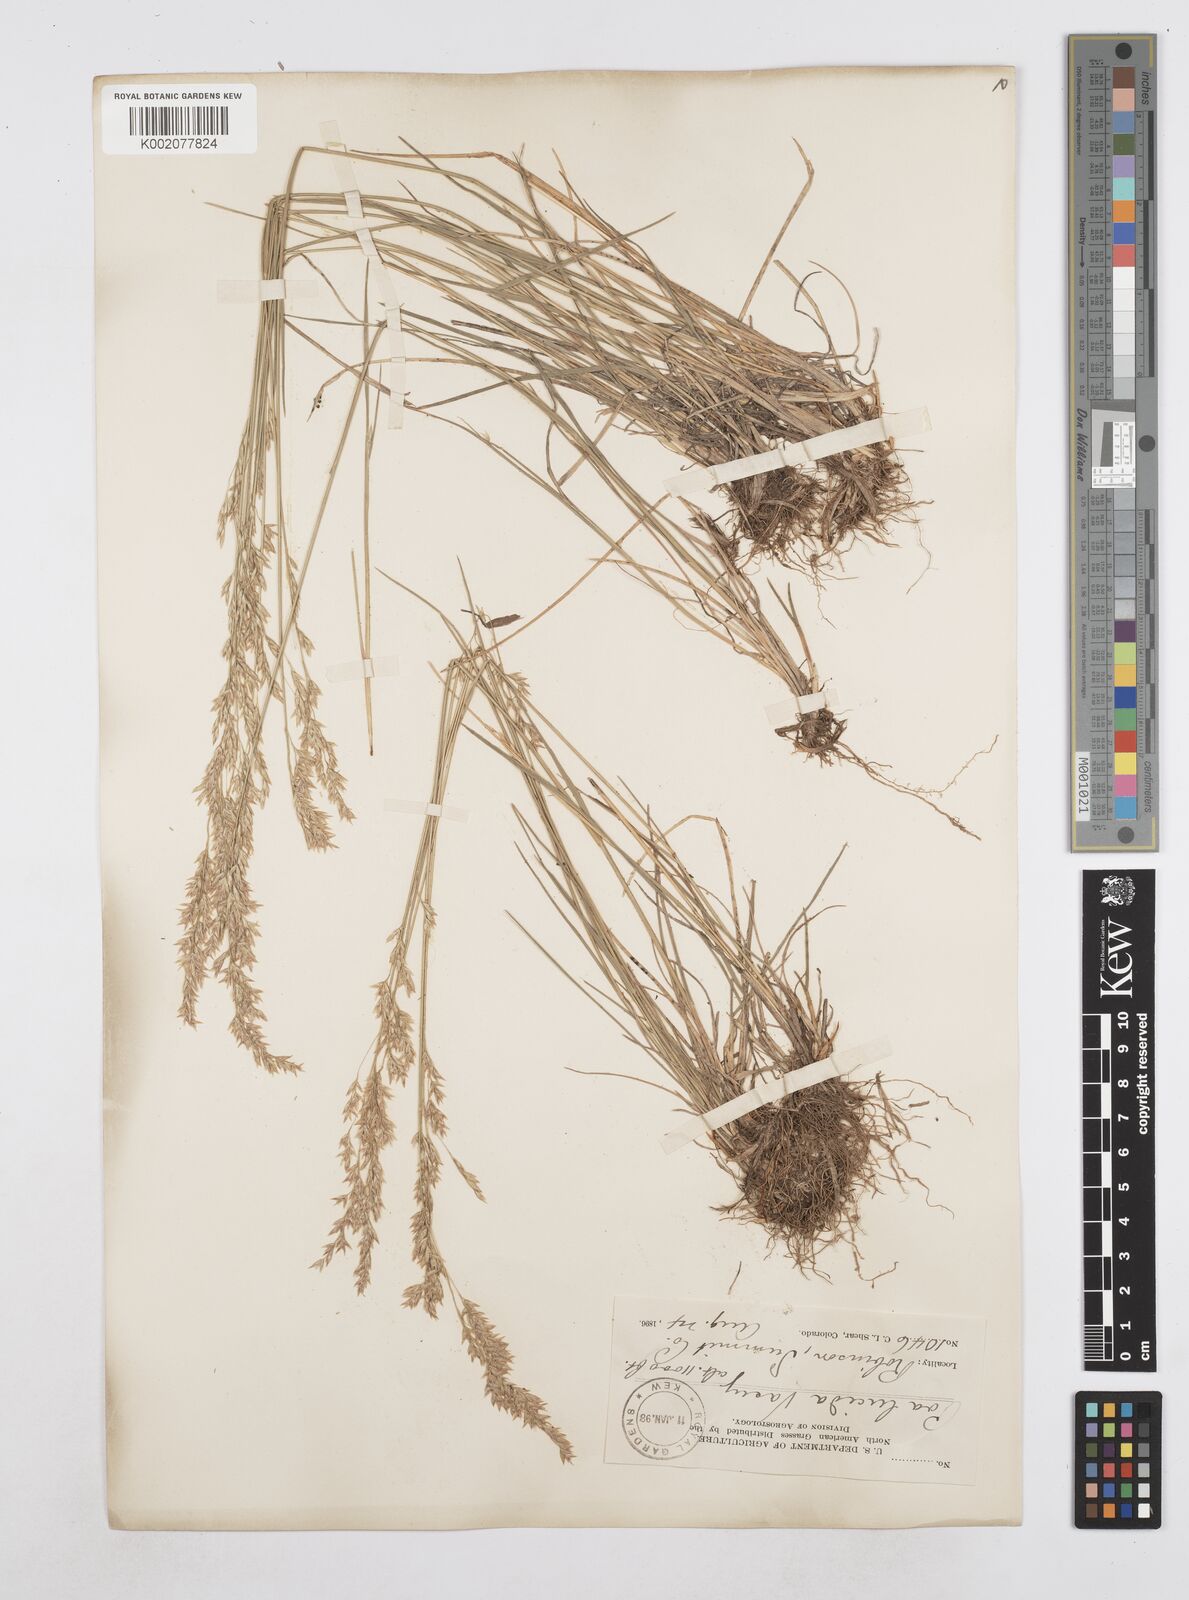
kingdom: Plantae
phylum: Tracheophyta
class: Liliopsida
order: Poales
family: Poaceae
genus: Poa
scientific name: Poa secunda
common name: Sandberg bluegrass
